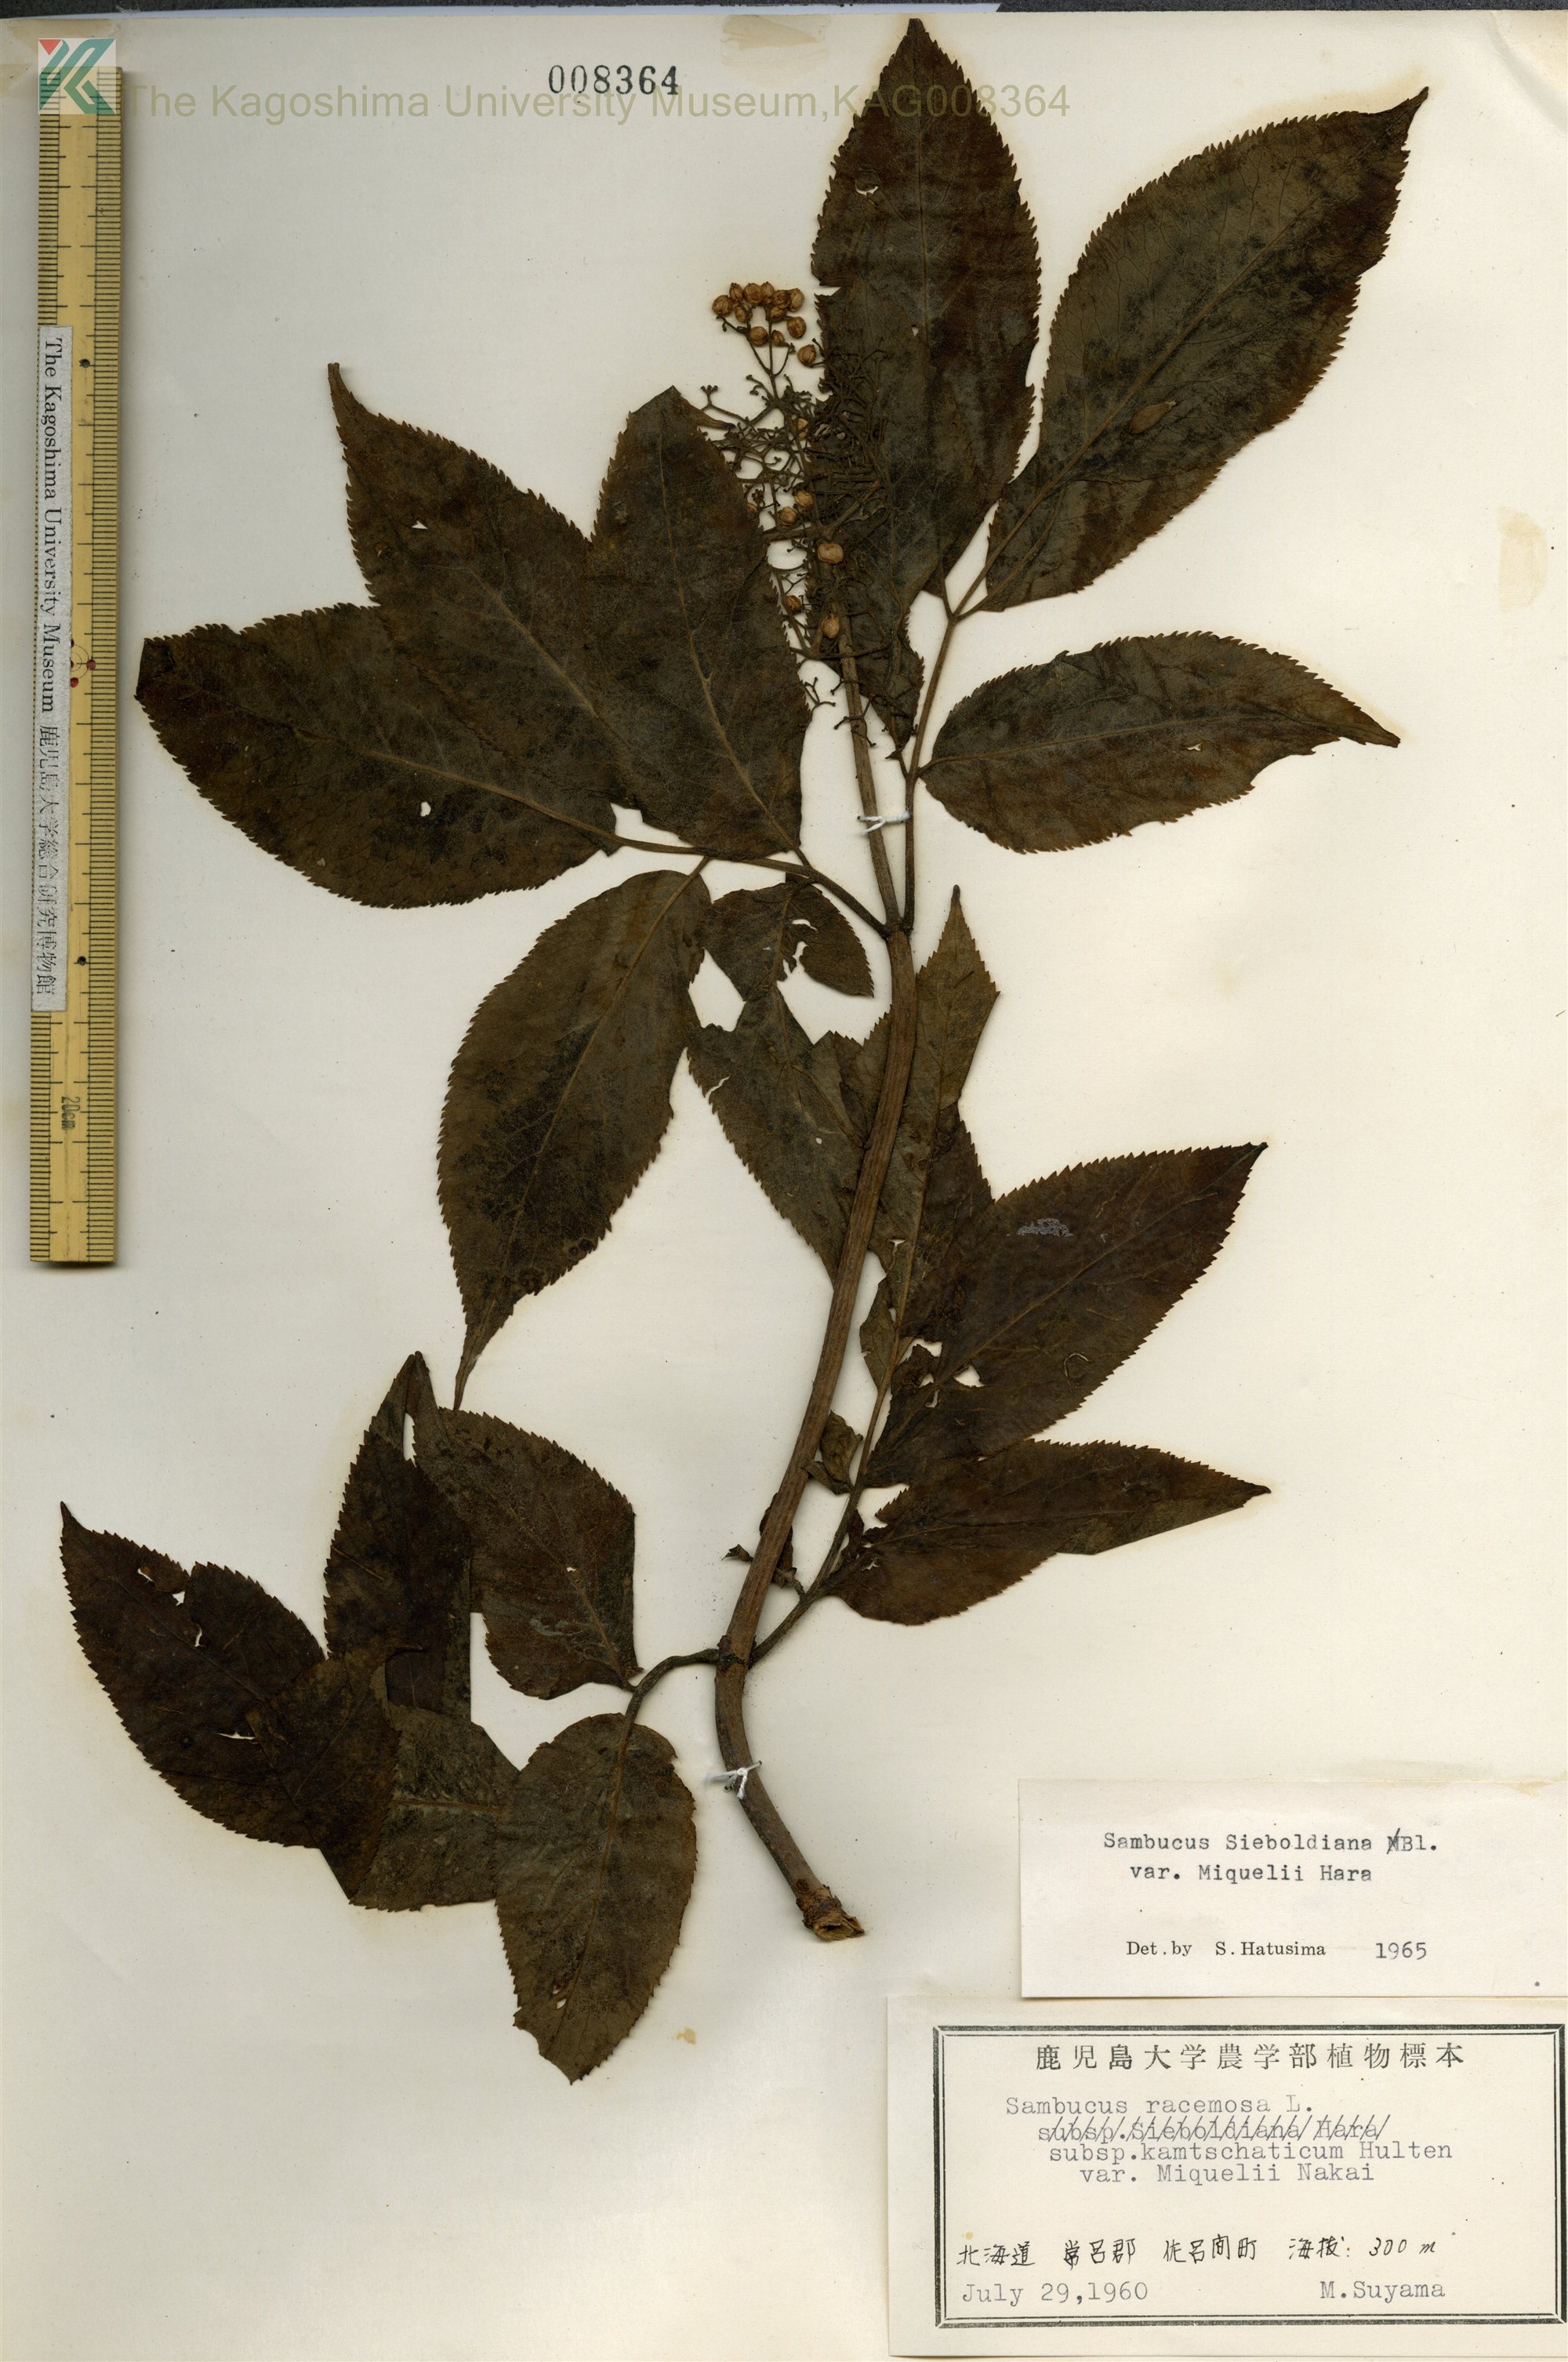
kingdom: Plantae
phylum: Tracheophyta
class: Magnoliopsida
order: Dipsacales
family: Viburnaceae
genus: Sambucus
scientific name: Sambucus kamtschatica
